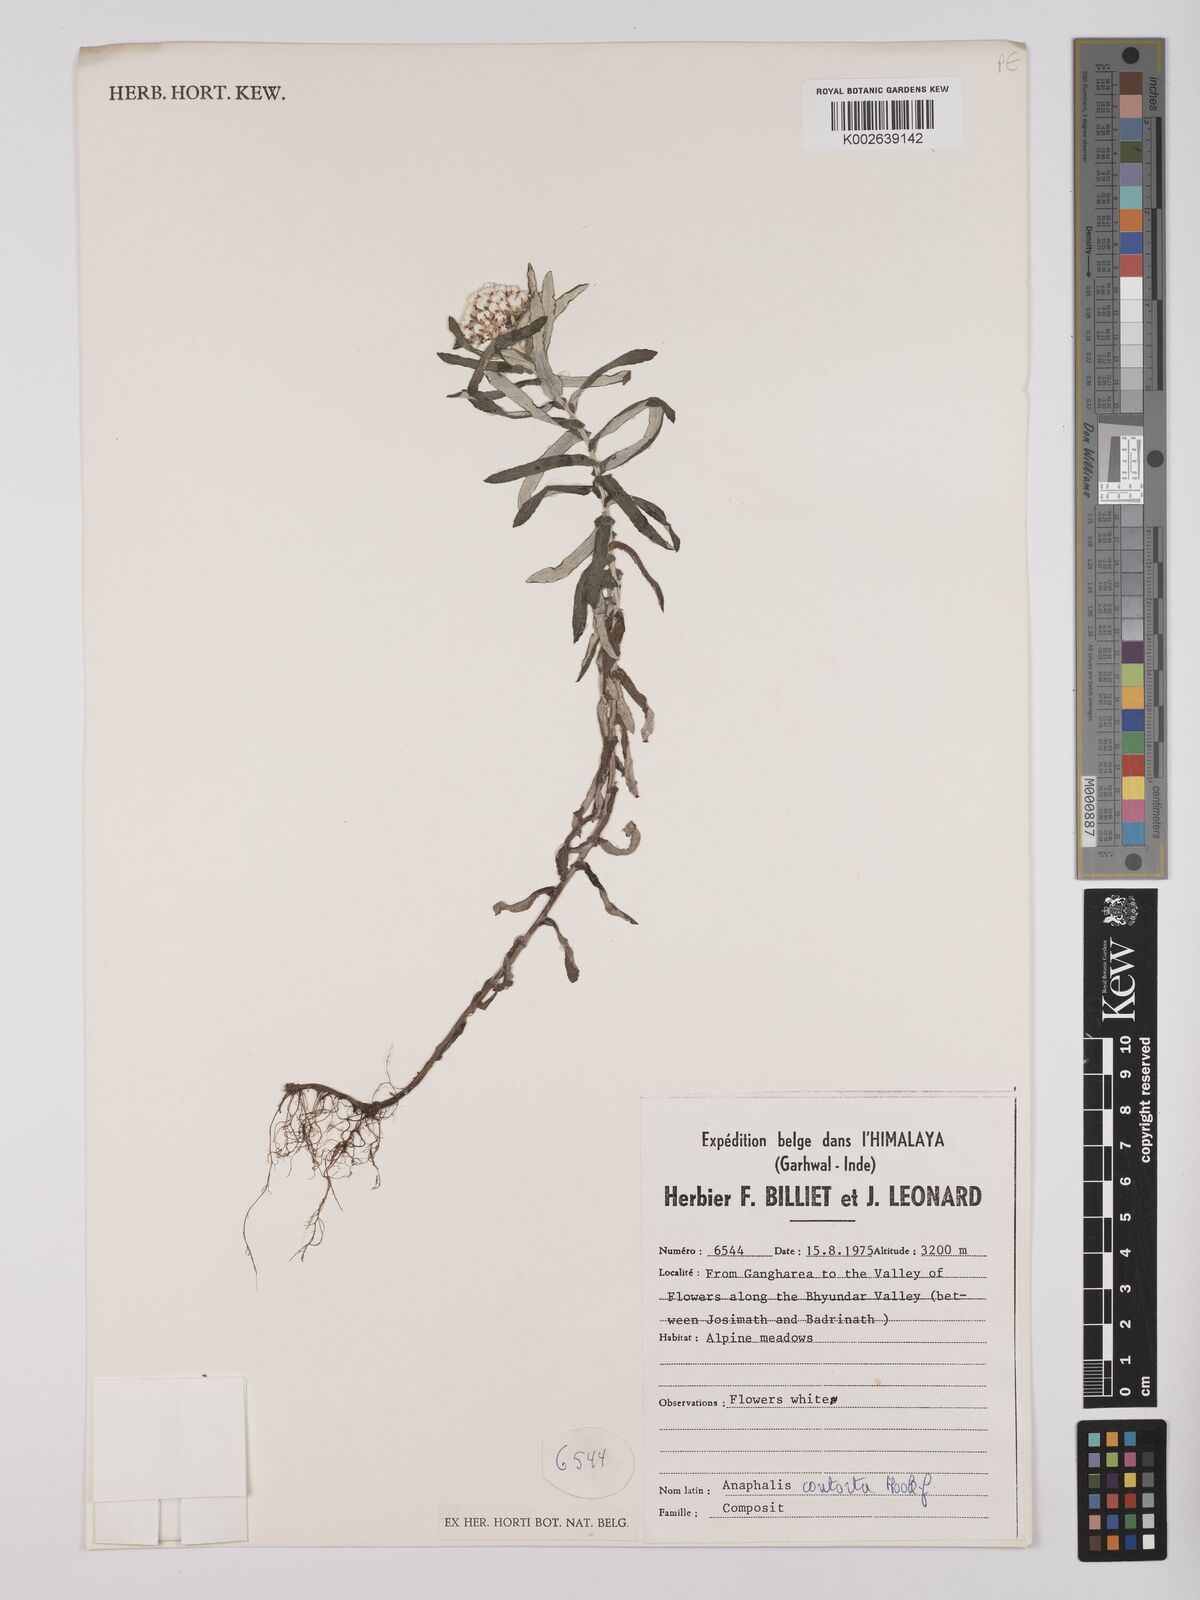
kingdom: Plantae
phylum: Tracheophyta
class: Magnoliopsida
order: Asterales
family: Asteraceae
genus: Anaphalis
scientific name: Anaphalis contorta
